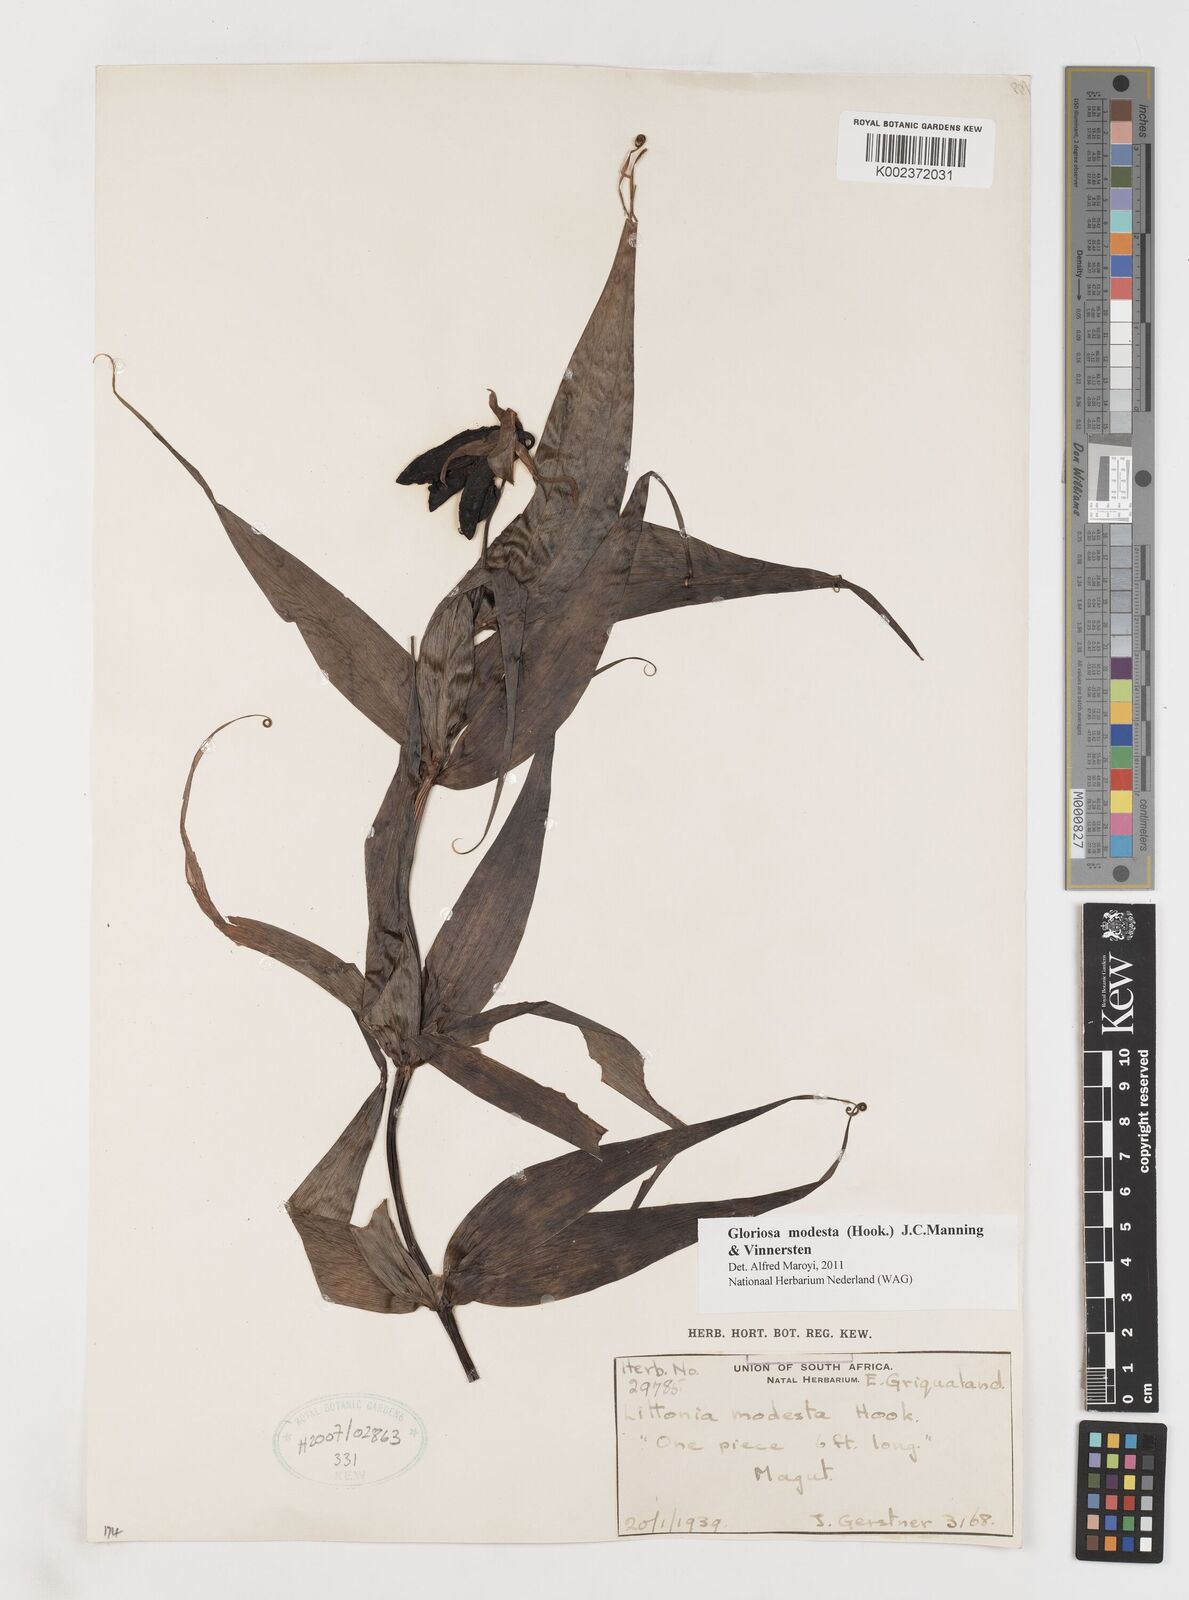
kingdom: Plantae
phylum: Tracheophyta
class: Liliopsida
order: Liliales
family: Colchicaceae
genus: Gloriosa
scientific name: Gloriosa modesta
